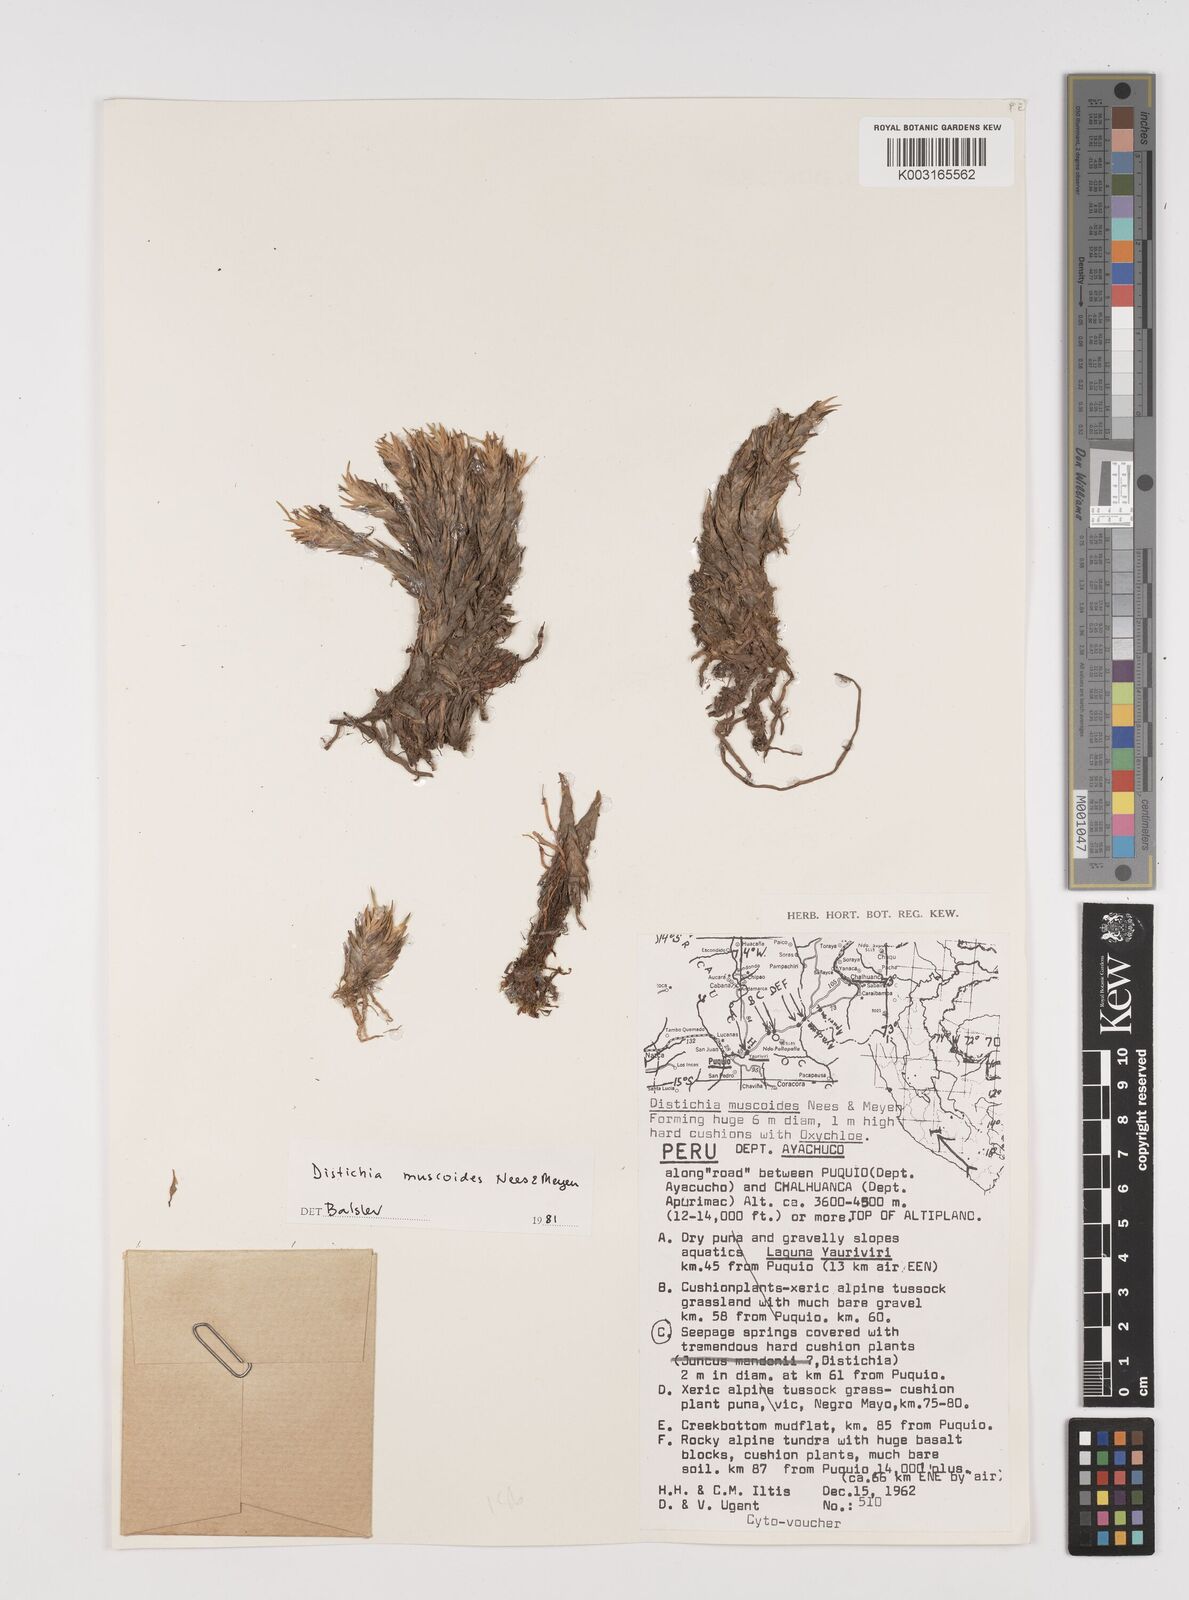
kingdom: Plantae
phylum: Tracheophyta
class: Liliopsida
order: Poales
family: Juncaceae
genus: Distichia
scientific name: Distichia muscoides
